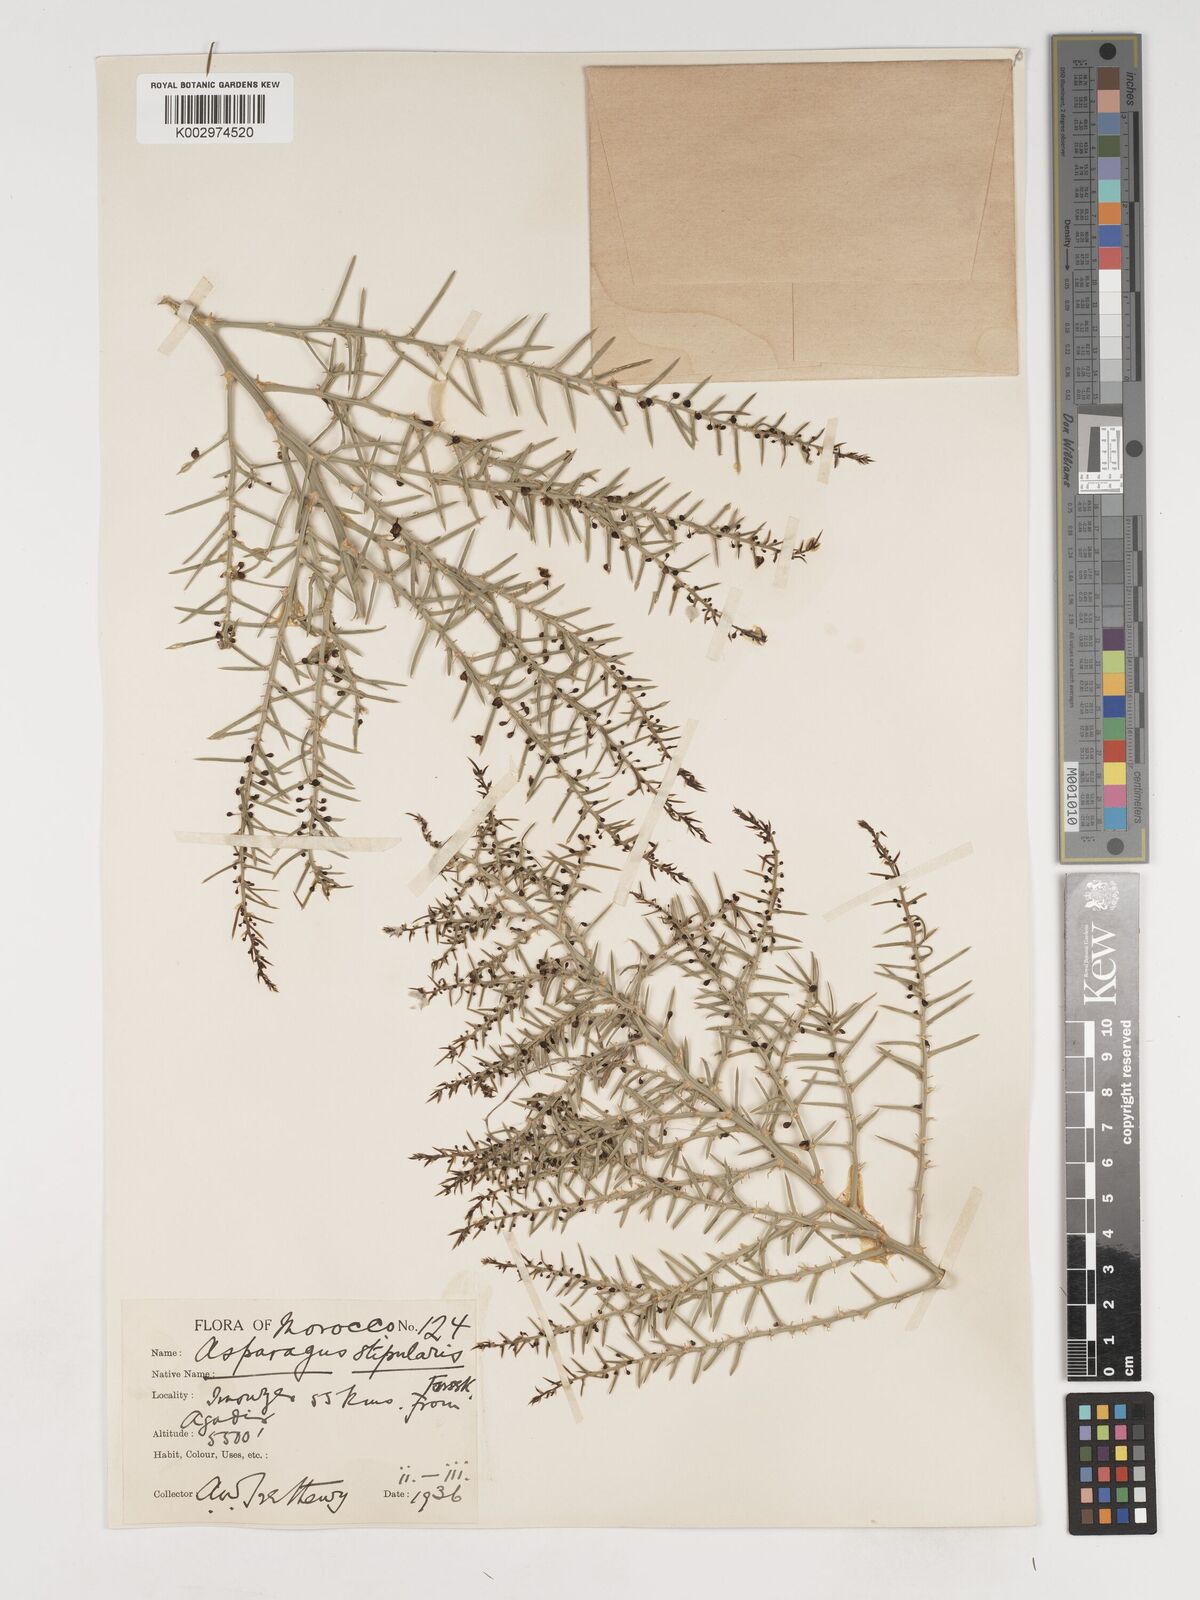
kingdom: Plantae
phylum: Tracheophyta
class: Liliopsida
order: Asparagales
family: Asparagaceae
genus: Asparagus
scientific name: Asparagus horridus
